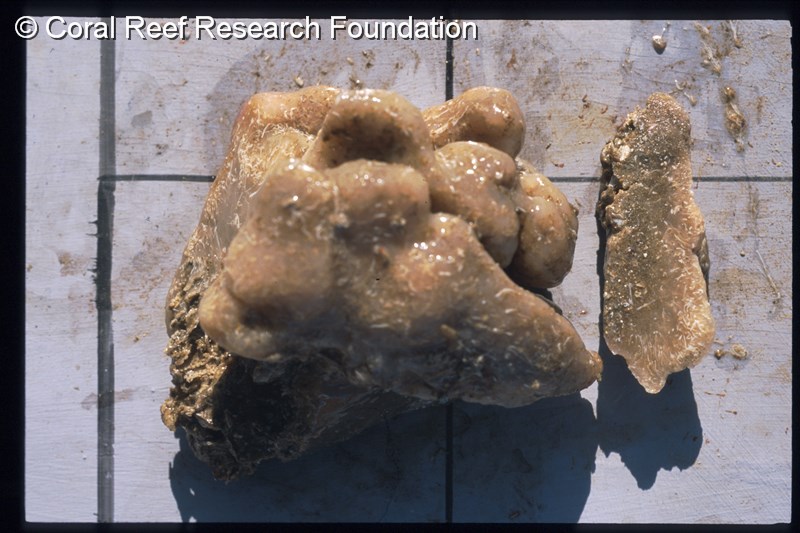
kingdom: Animalia
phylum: Chordata
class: Ascidiacea
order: Aplousobranchia
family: Polyclinidae
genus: Synoicum
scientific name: Synoicum
